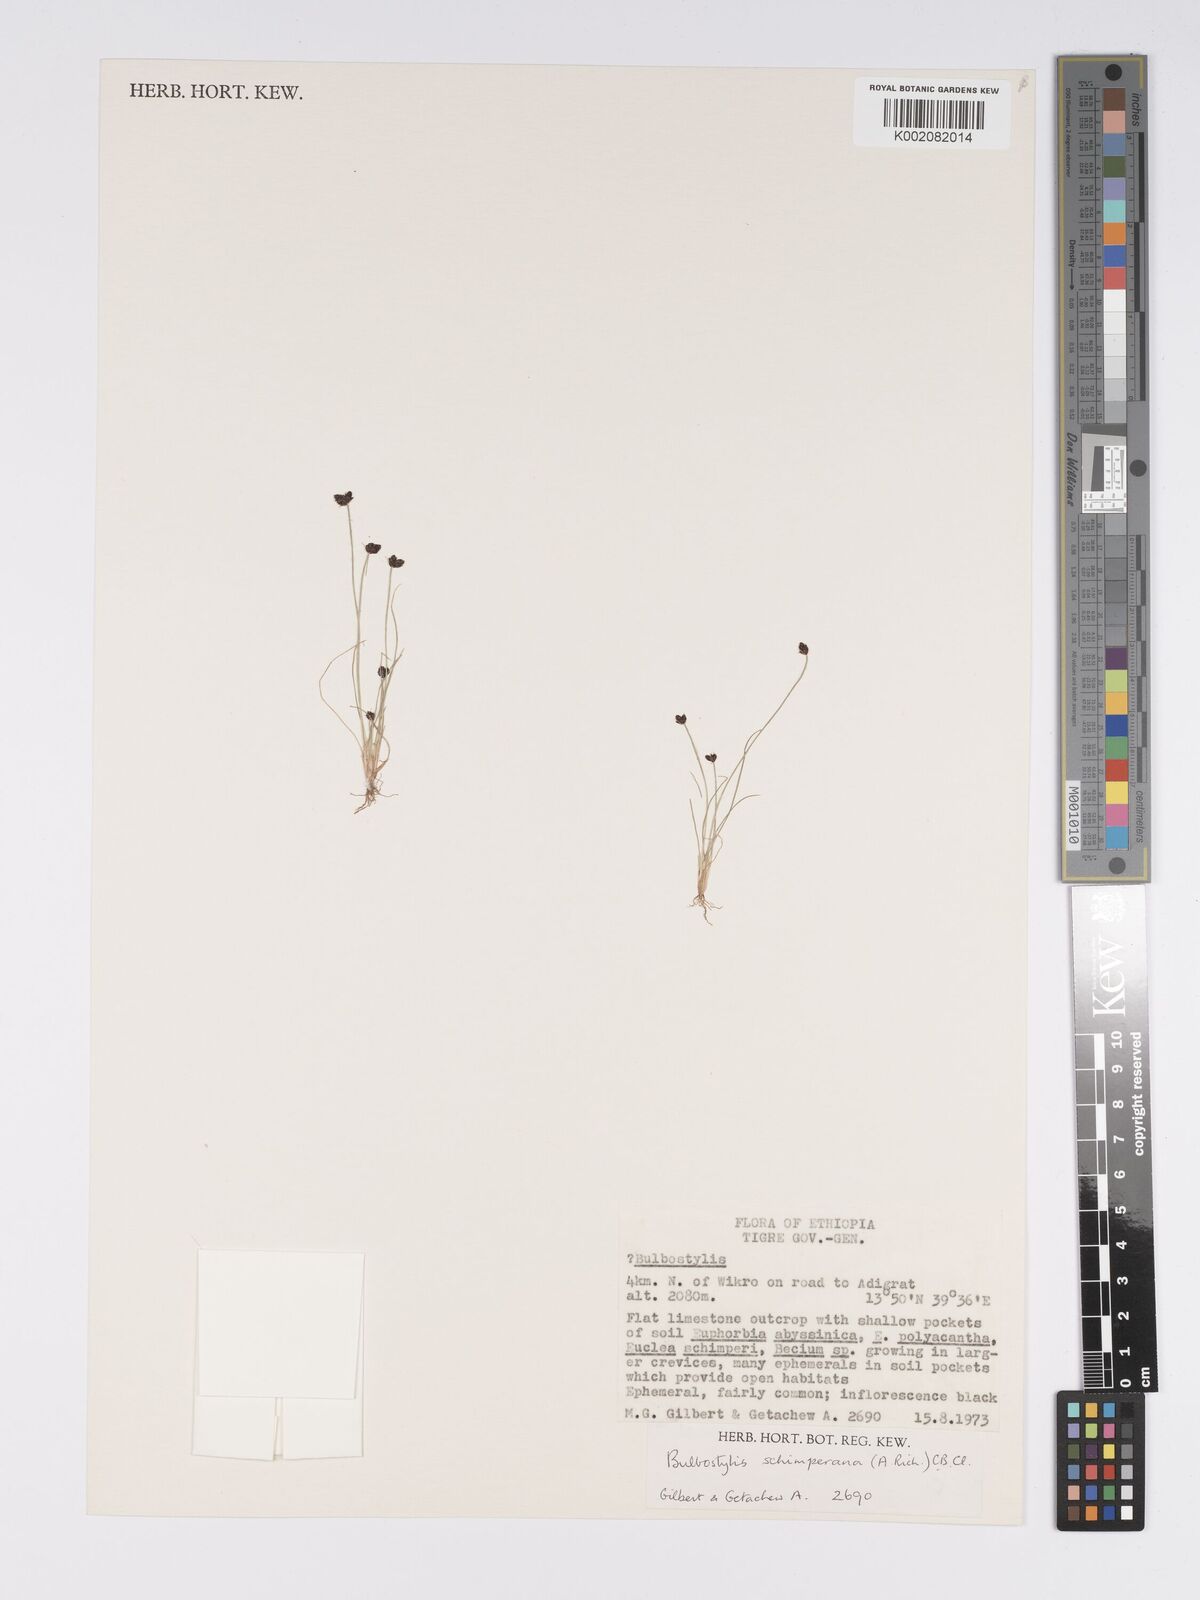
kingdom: Plantae
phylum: Tracheophyta
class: Liliopsida
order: Poales
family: Cyperaceae
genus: Bulbostylis
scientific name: Bulbostylis schimperiana
